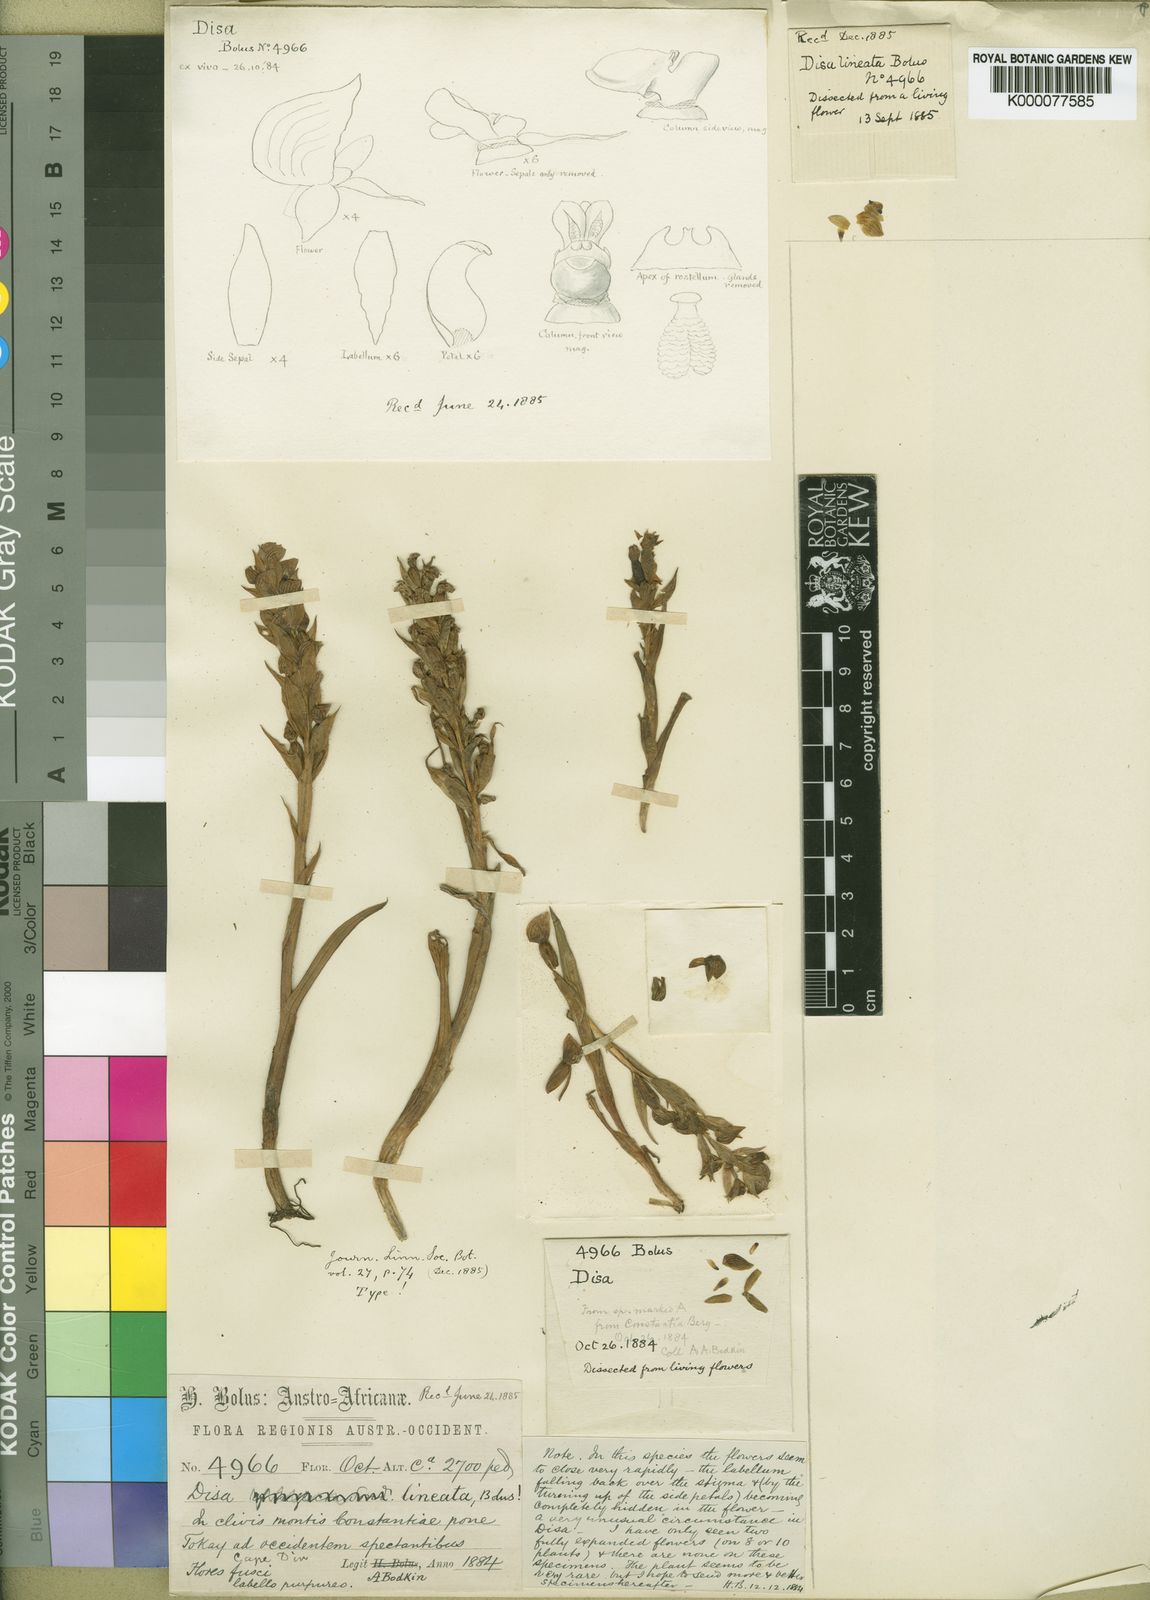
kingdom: Plantae
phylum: Tracheophyta
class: Liliopsida
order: Asparagales
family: Orchidaceae
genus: Disa
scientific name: Disa lineata
